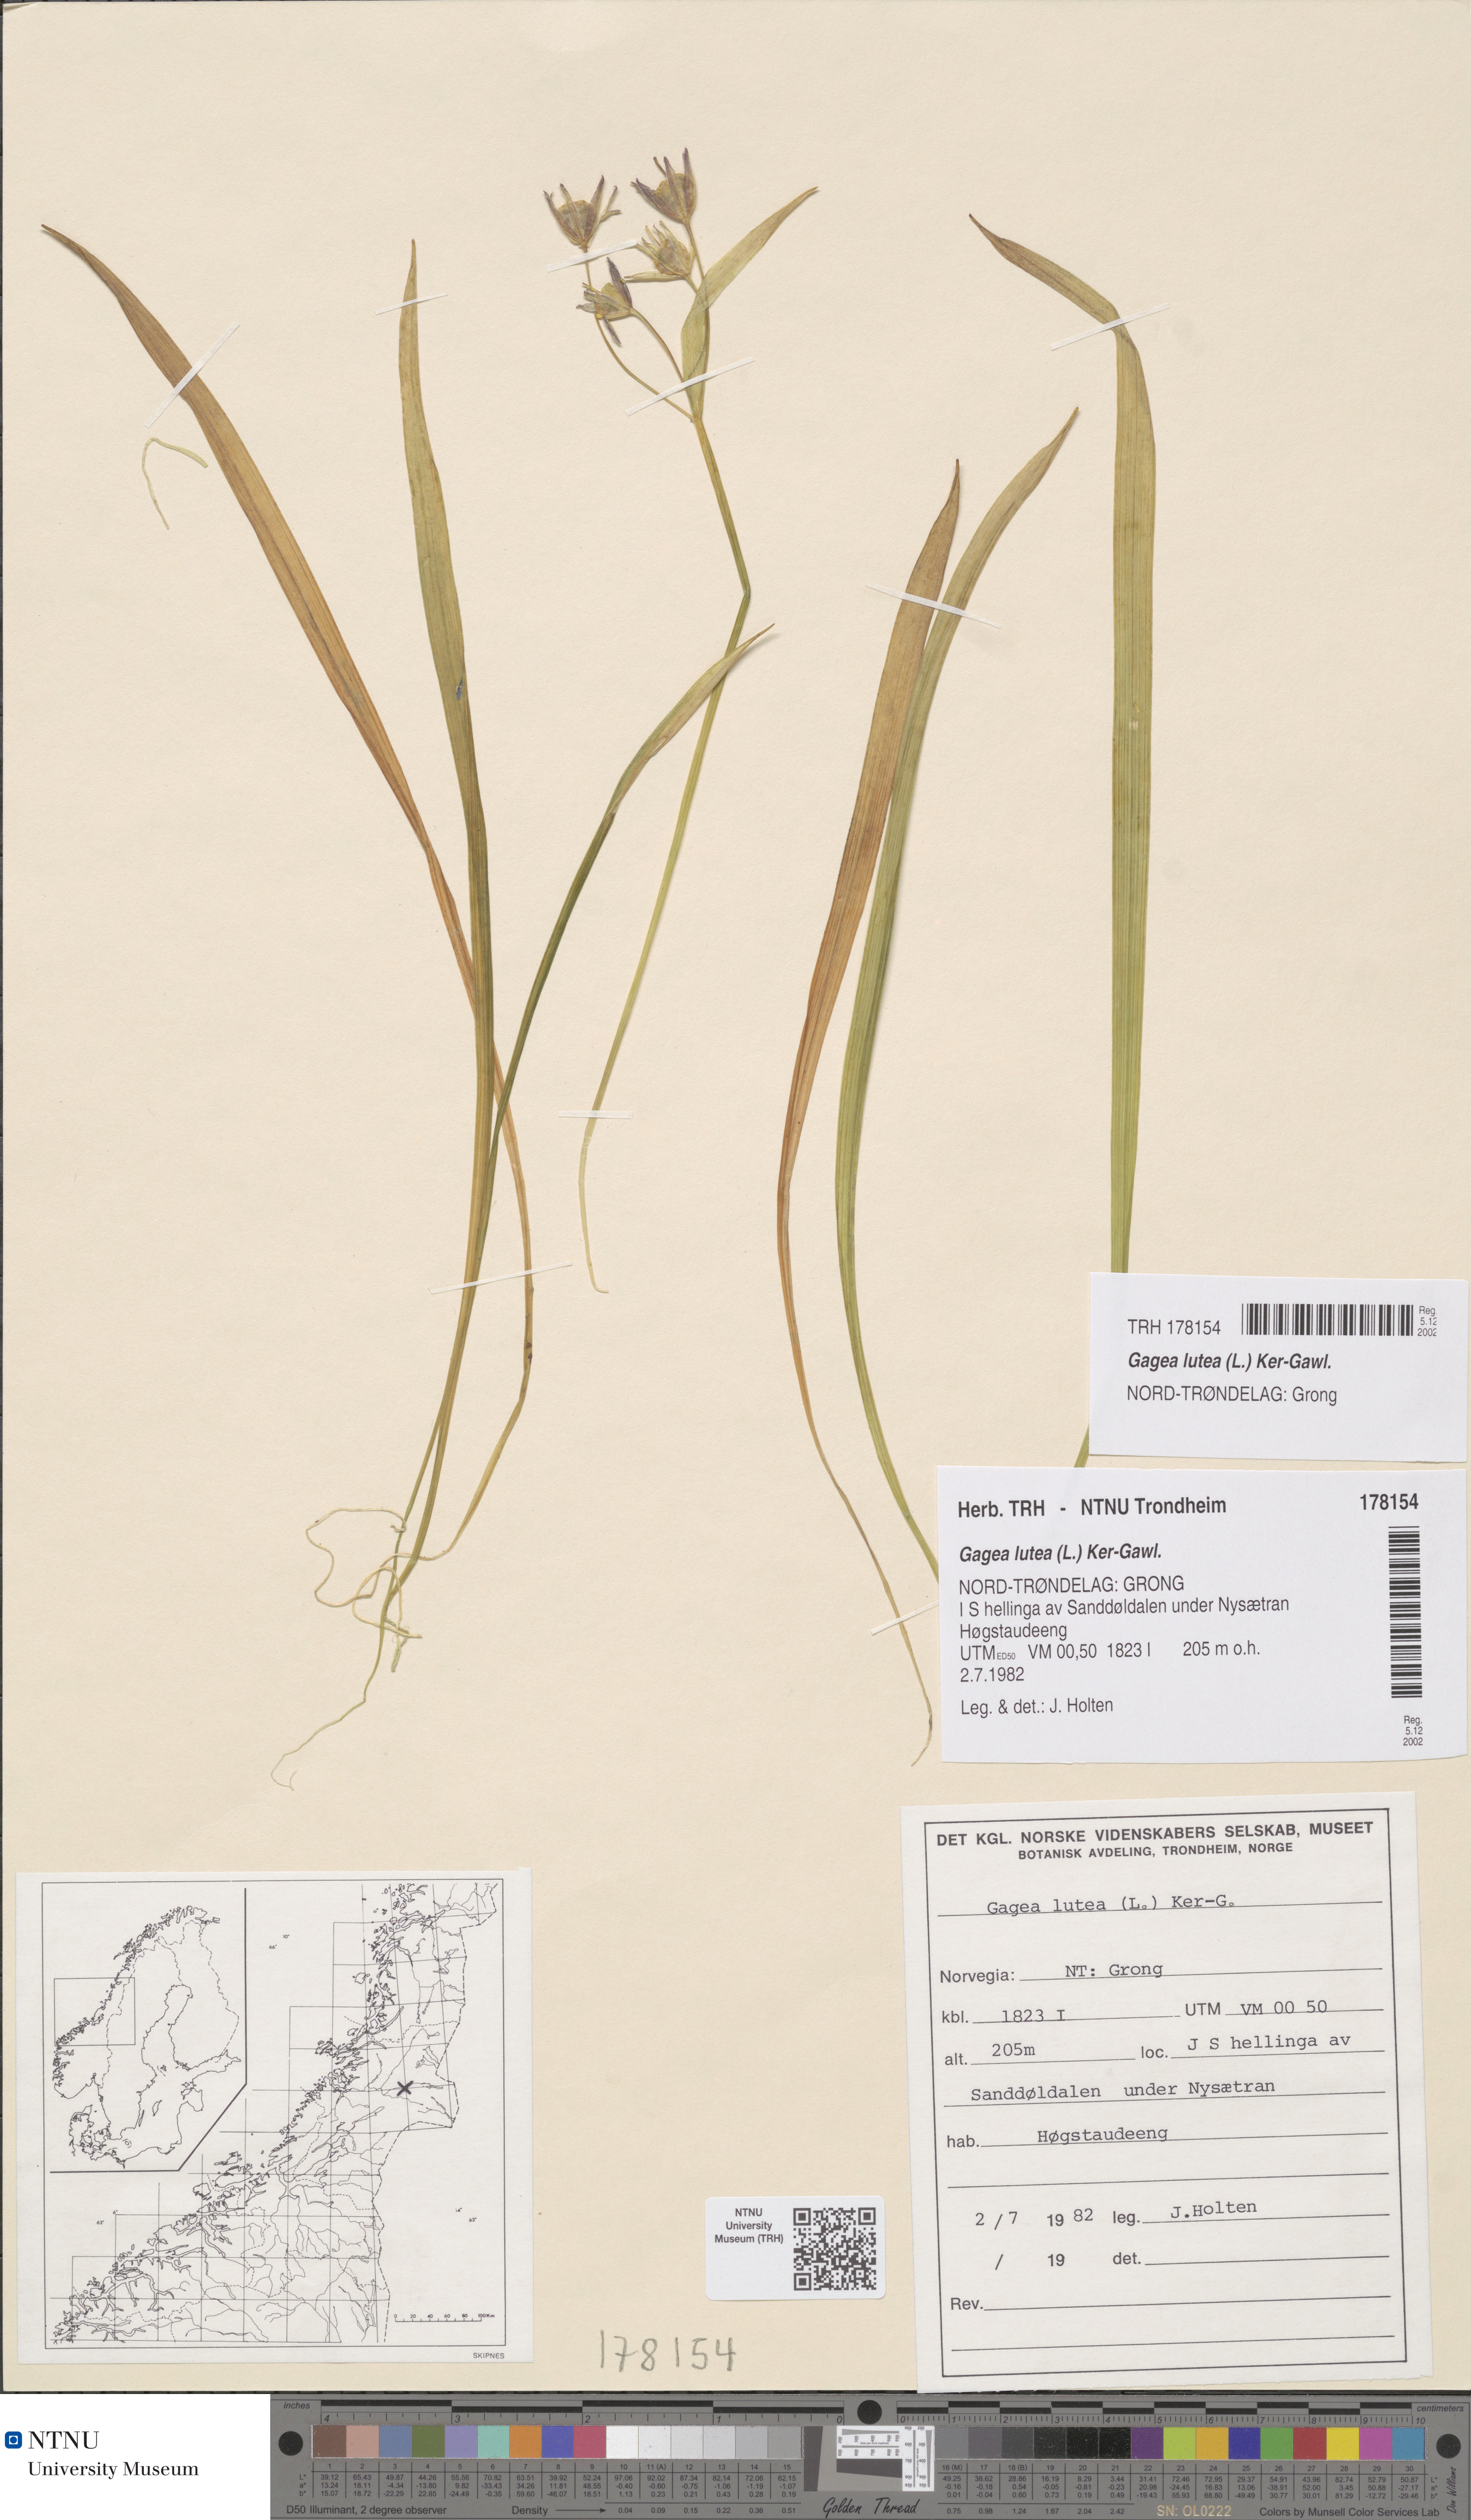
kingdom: Plantae
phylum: Tracheophyta
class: Liliopsida
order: Liliales
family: Liliaceae
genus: Gagea
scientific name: Gagea lutea
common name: Yellow star-of-bethlehem
